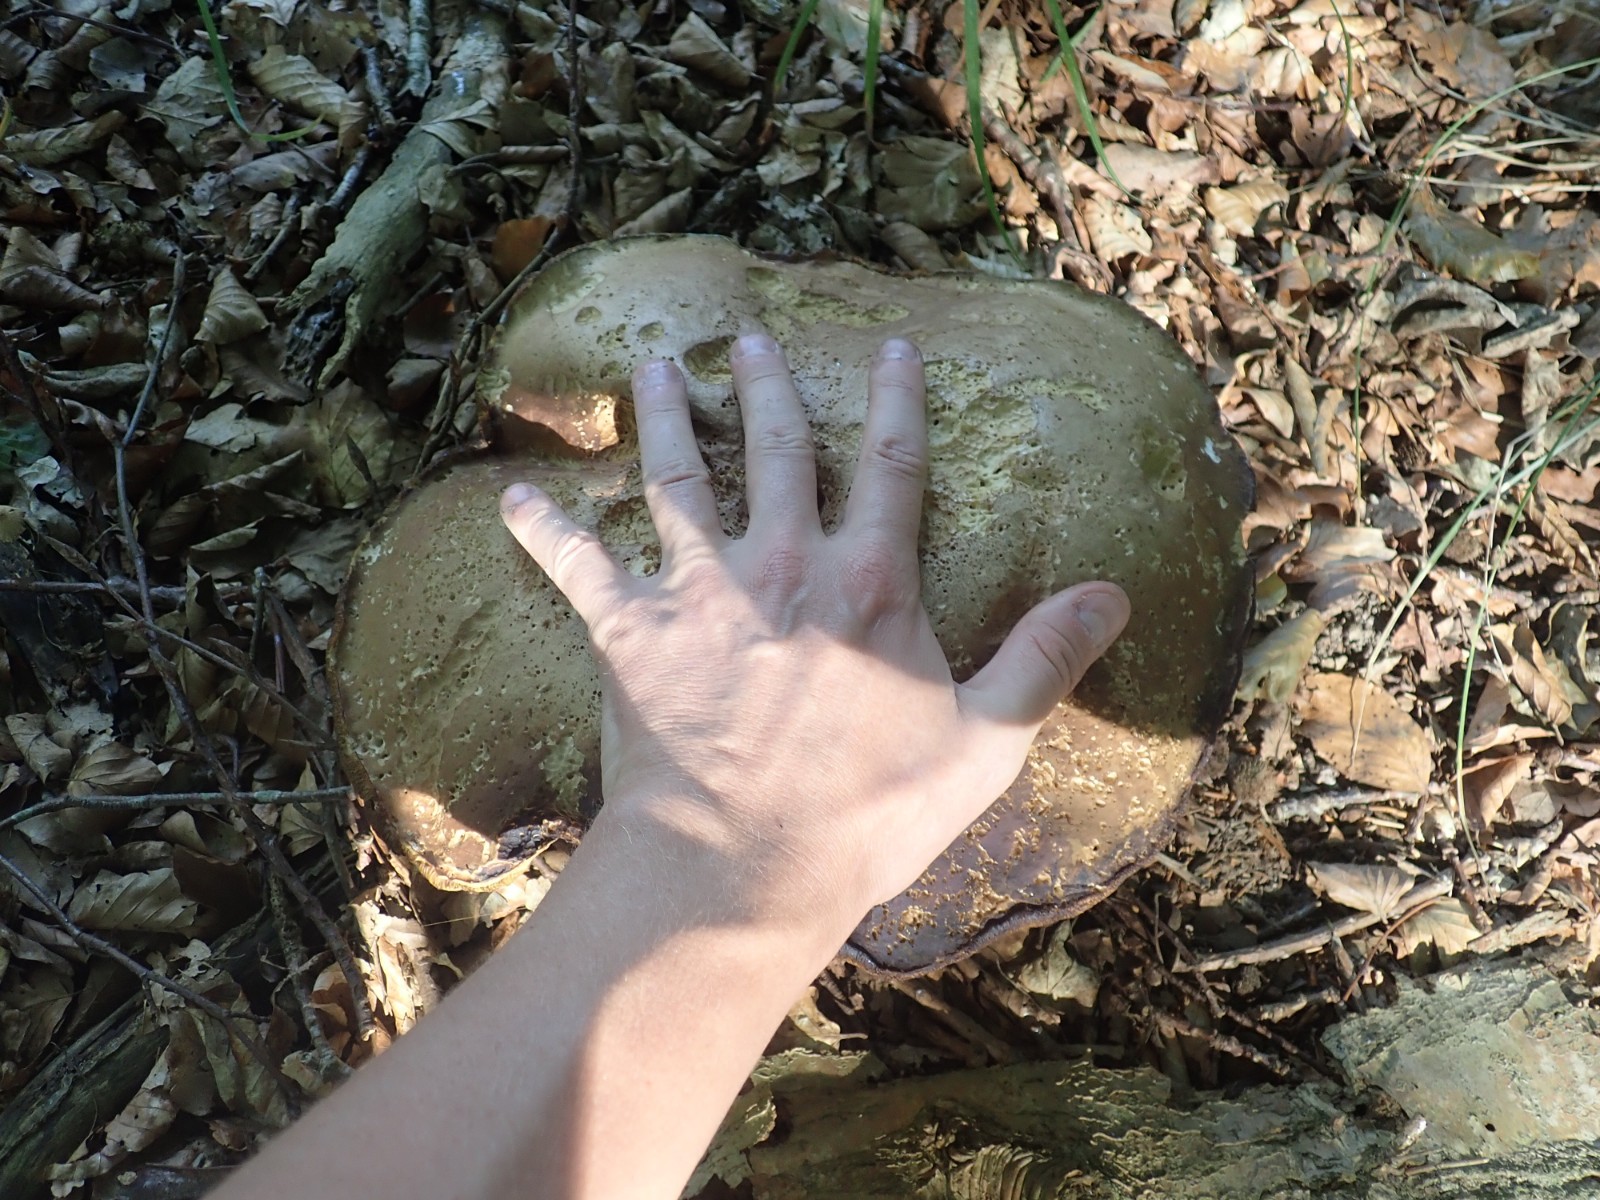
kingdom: Fungi
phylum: Basidiomycota
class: Agaricomycetes
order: Boletales
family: Boletaceae
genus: Boletus
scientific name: Boletus edulis
